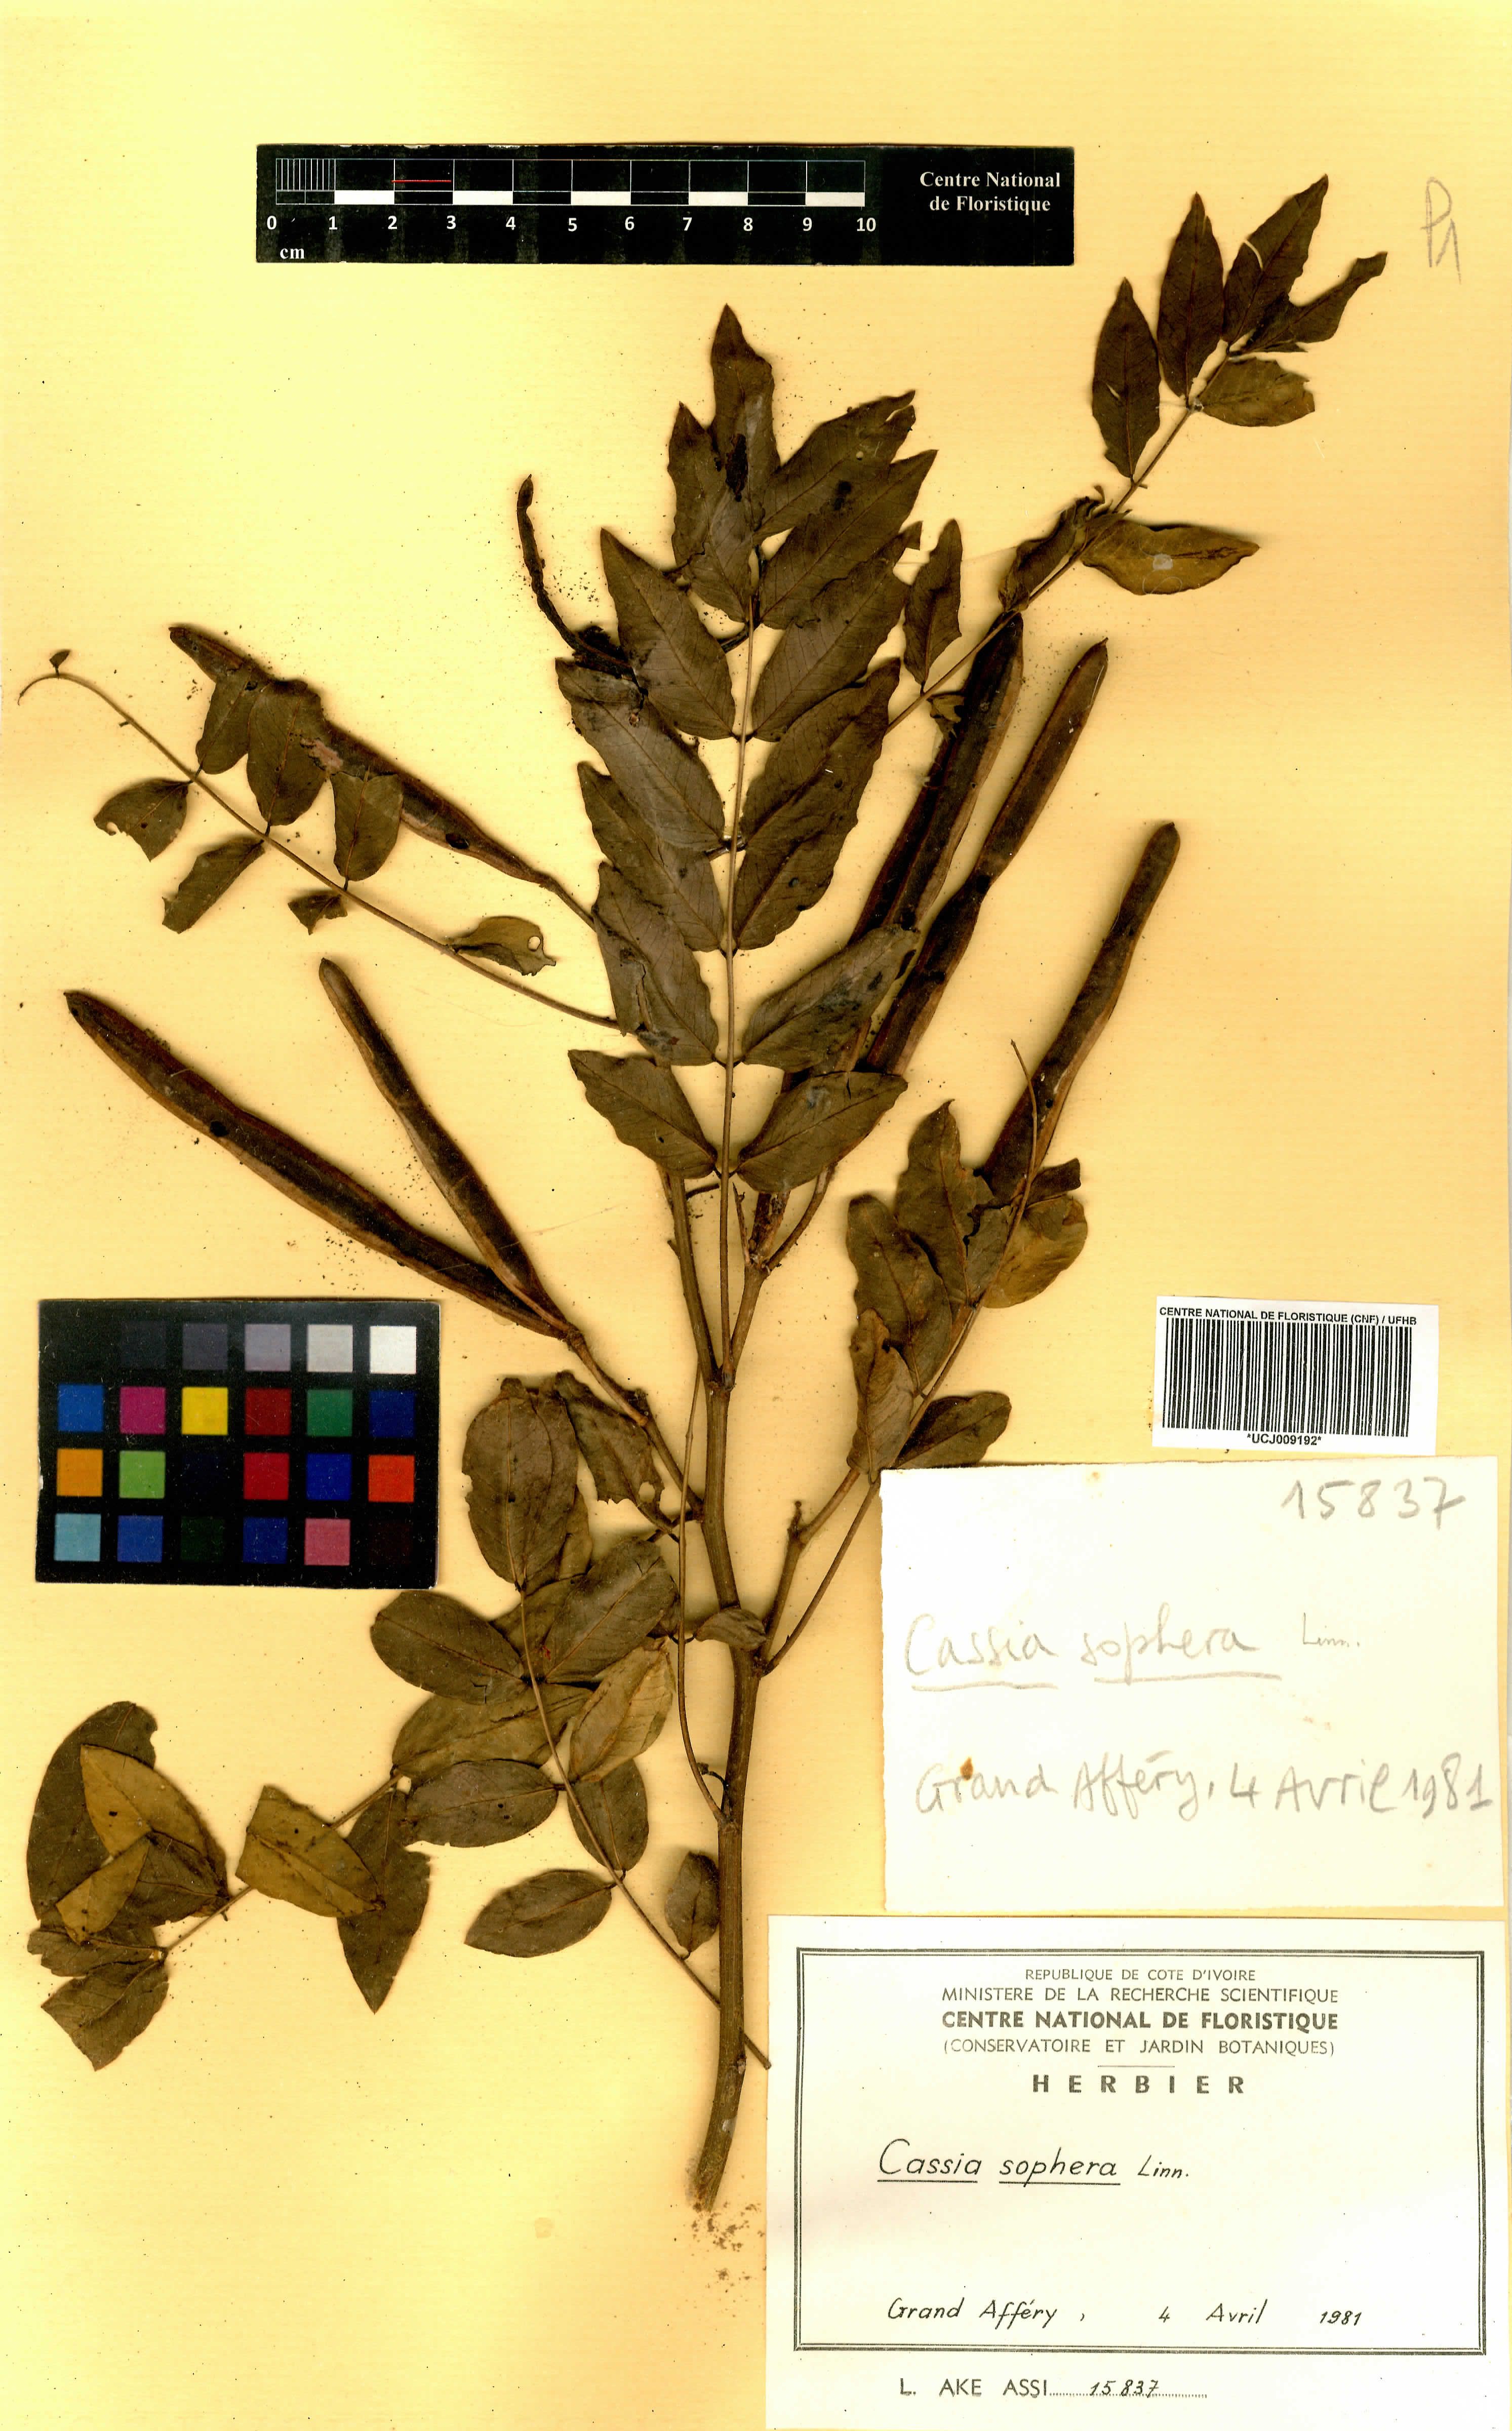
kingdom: Plantae
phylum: Tracheophyta
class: Magnoliopsida
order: Fabales
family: Fabaceae
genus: Senna
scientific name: Senna sophera
